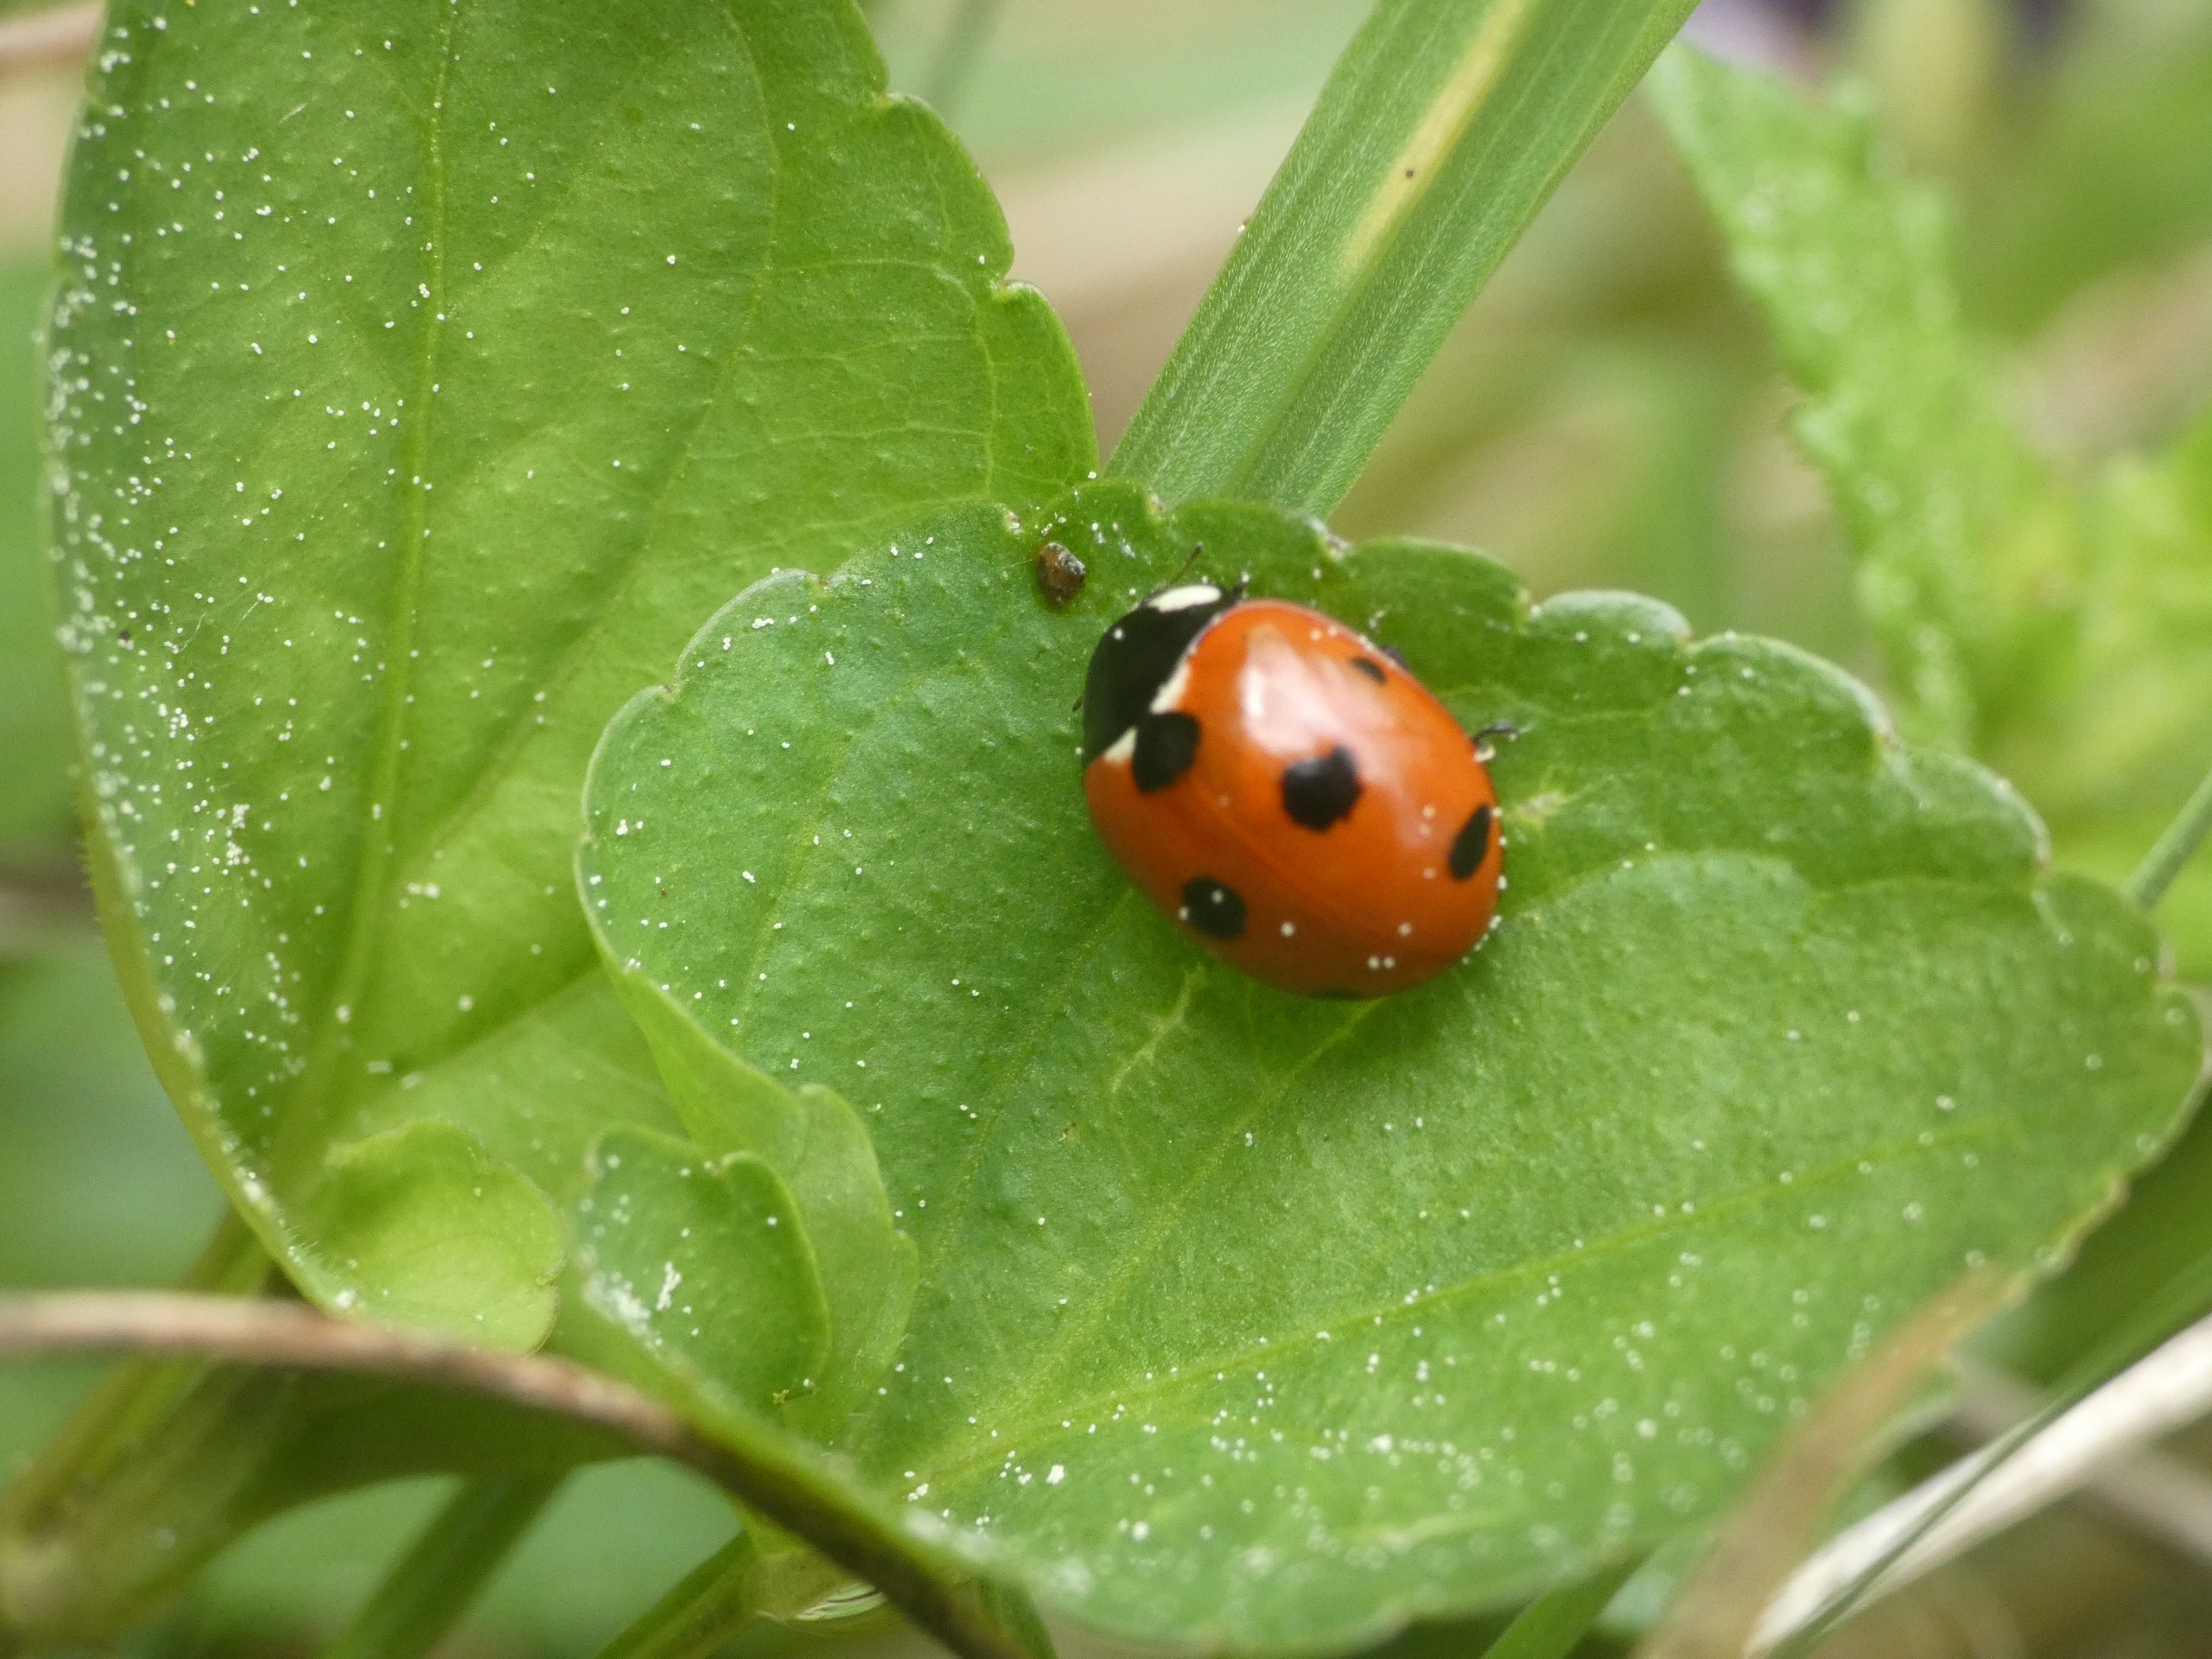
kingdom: Animalia
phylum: Arthropoda
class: Insecta
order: Coleoptera
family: Coccinellidae
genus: Coccinella
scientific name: Coccinella septempunctata
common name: Syvplettet mariehøne
